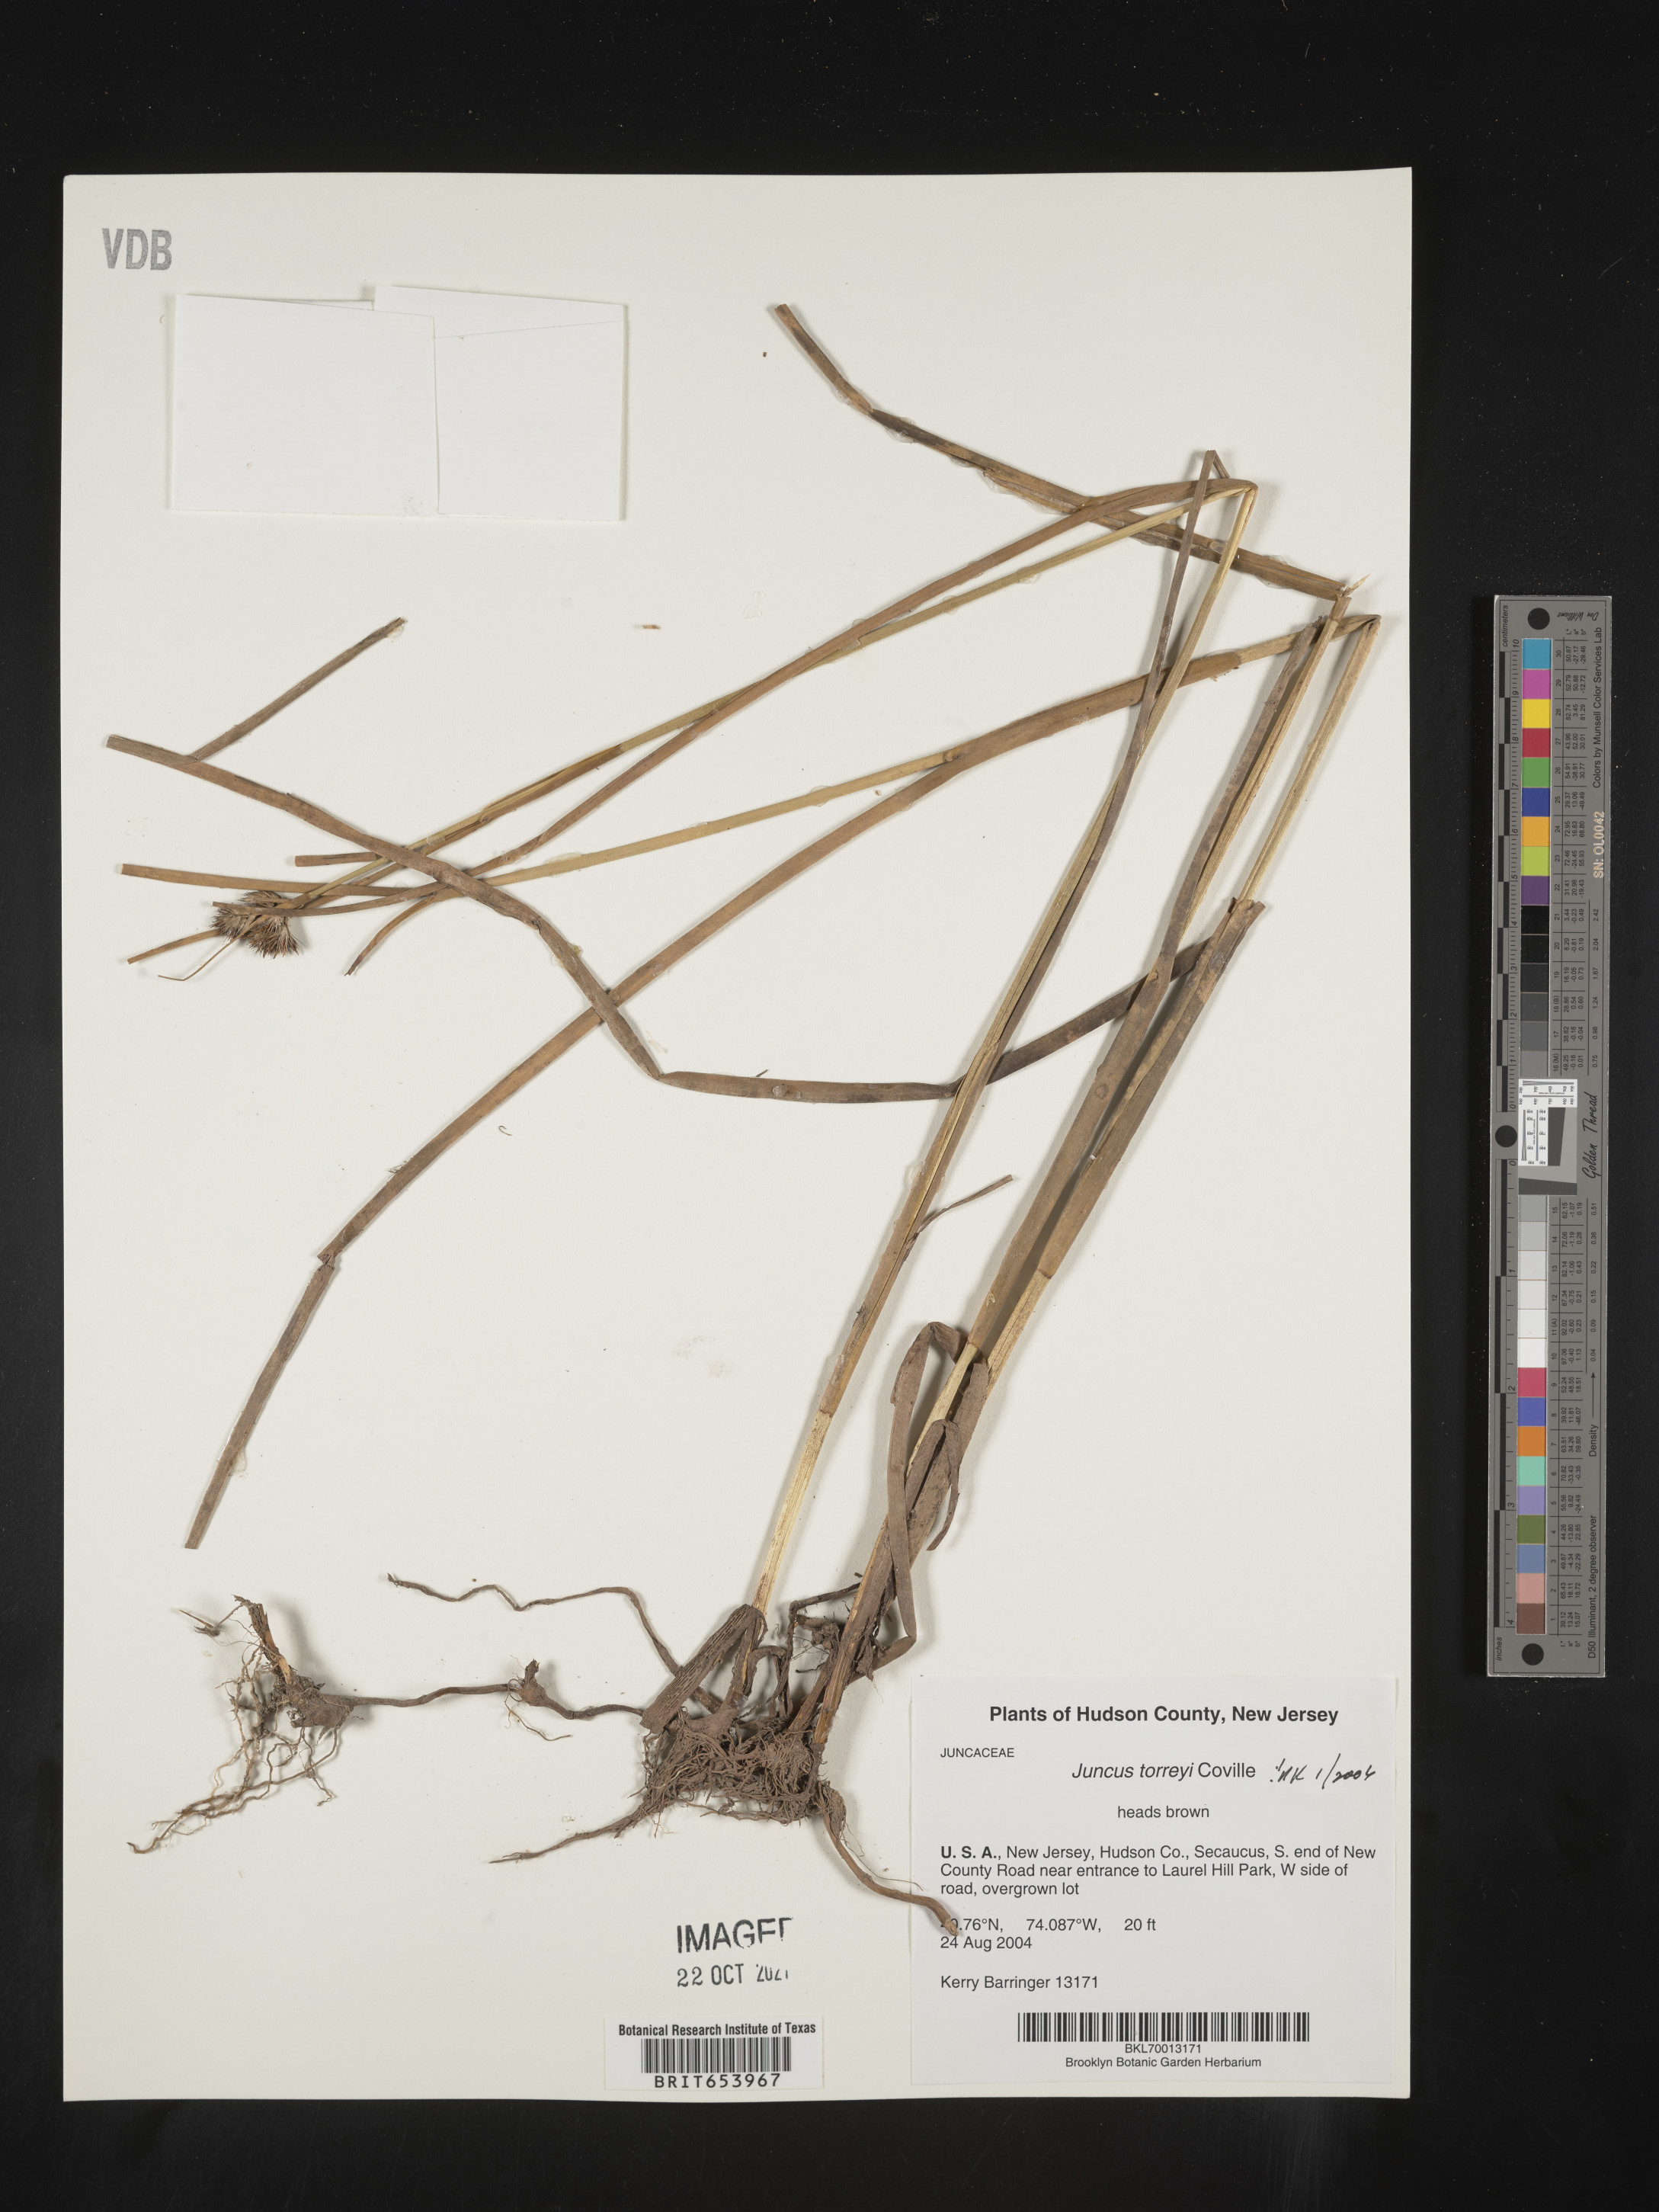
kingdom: Plantae
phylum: Tracheophyta
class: Liliopsida
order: Poales
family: Juncaceae
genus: Juncus
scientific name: Juncus torreyi
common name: Torrey's rush
